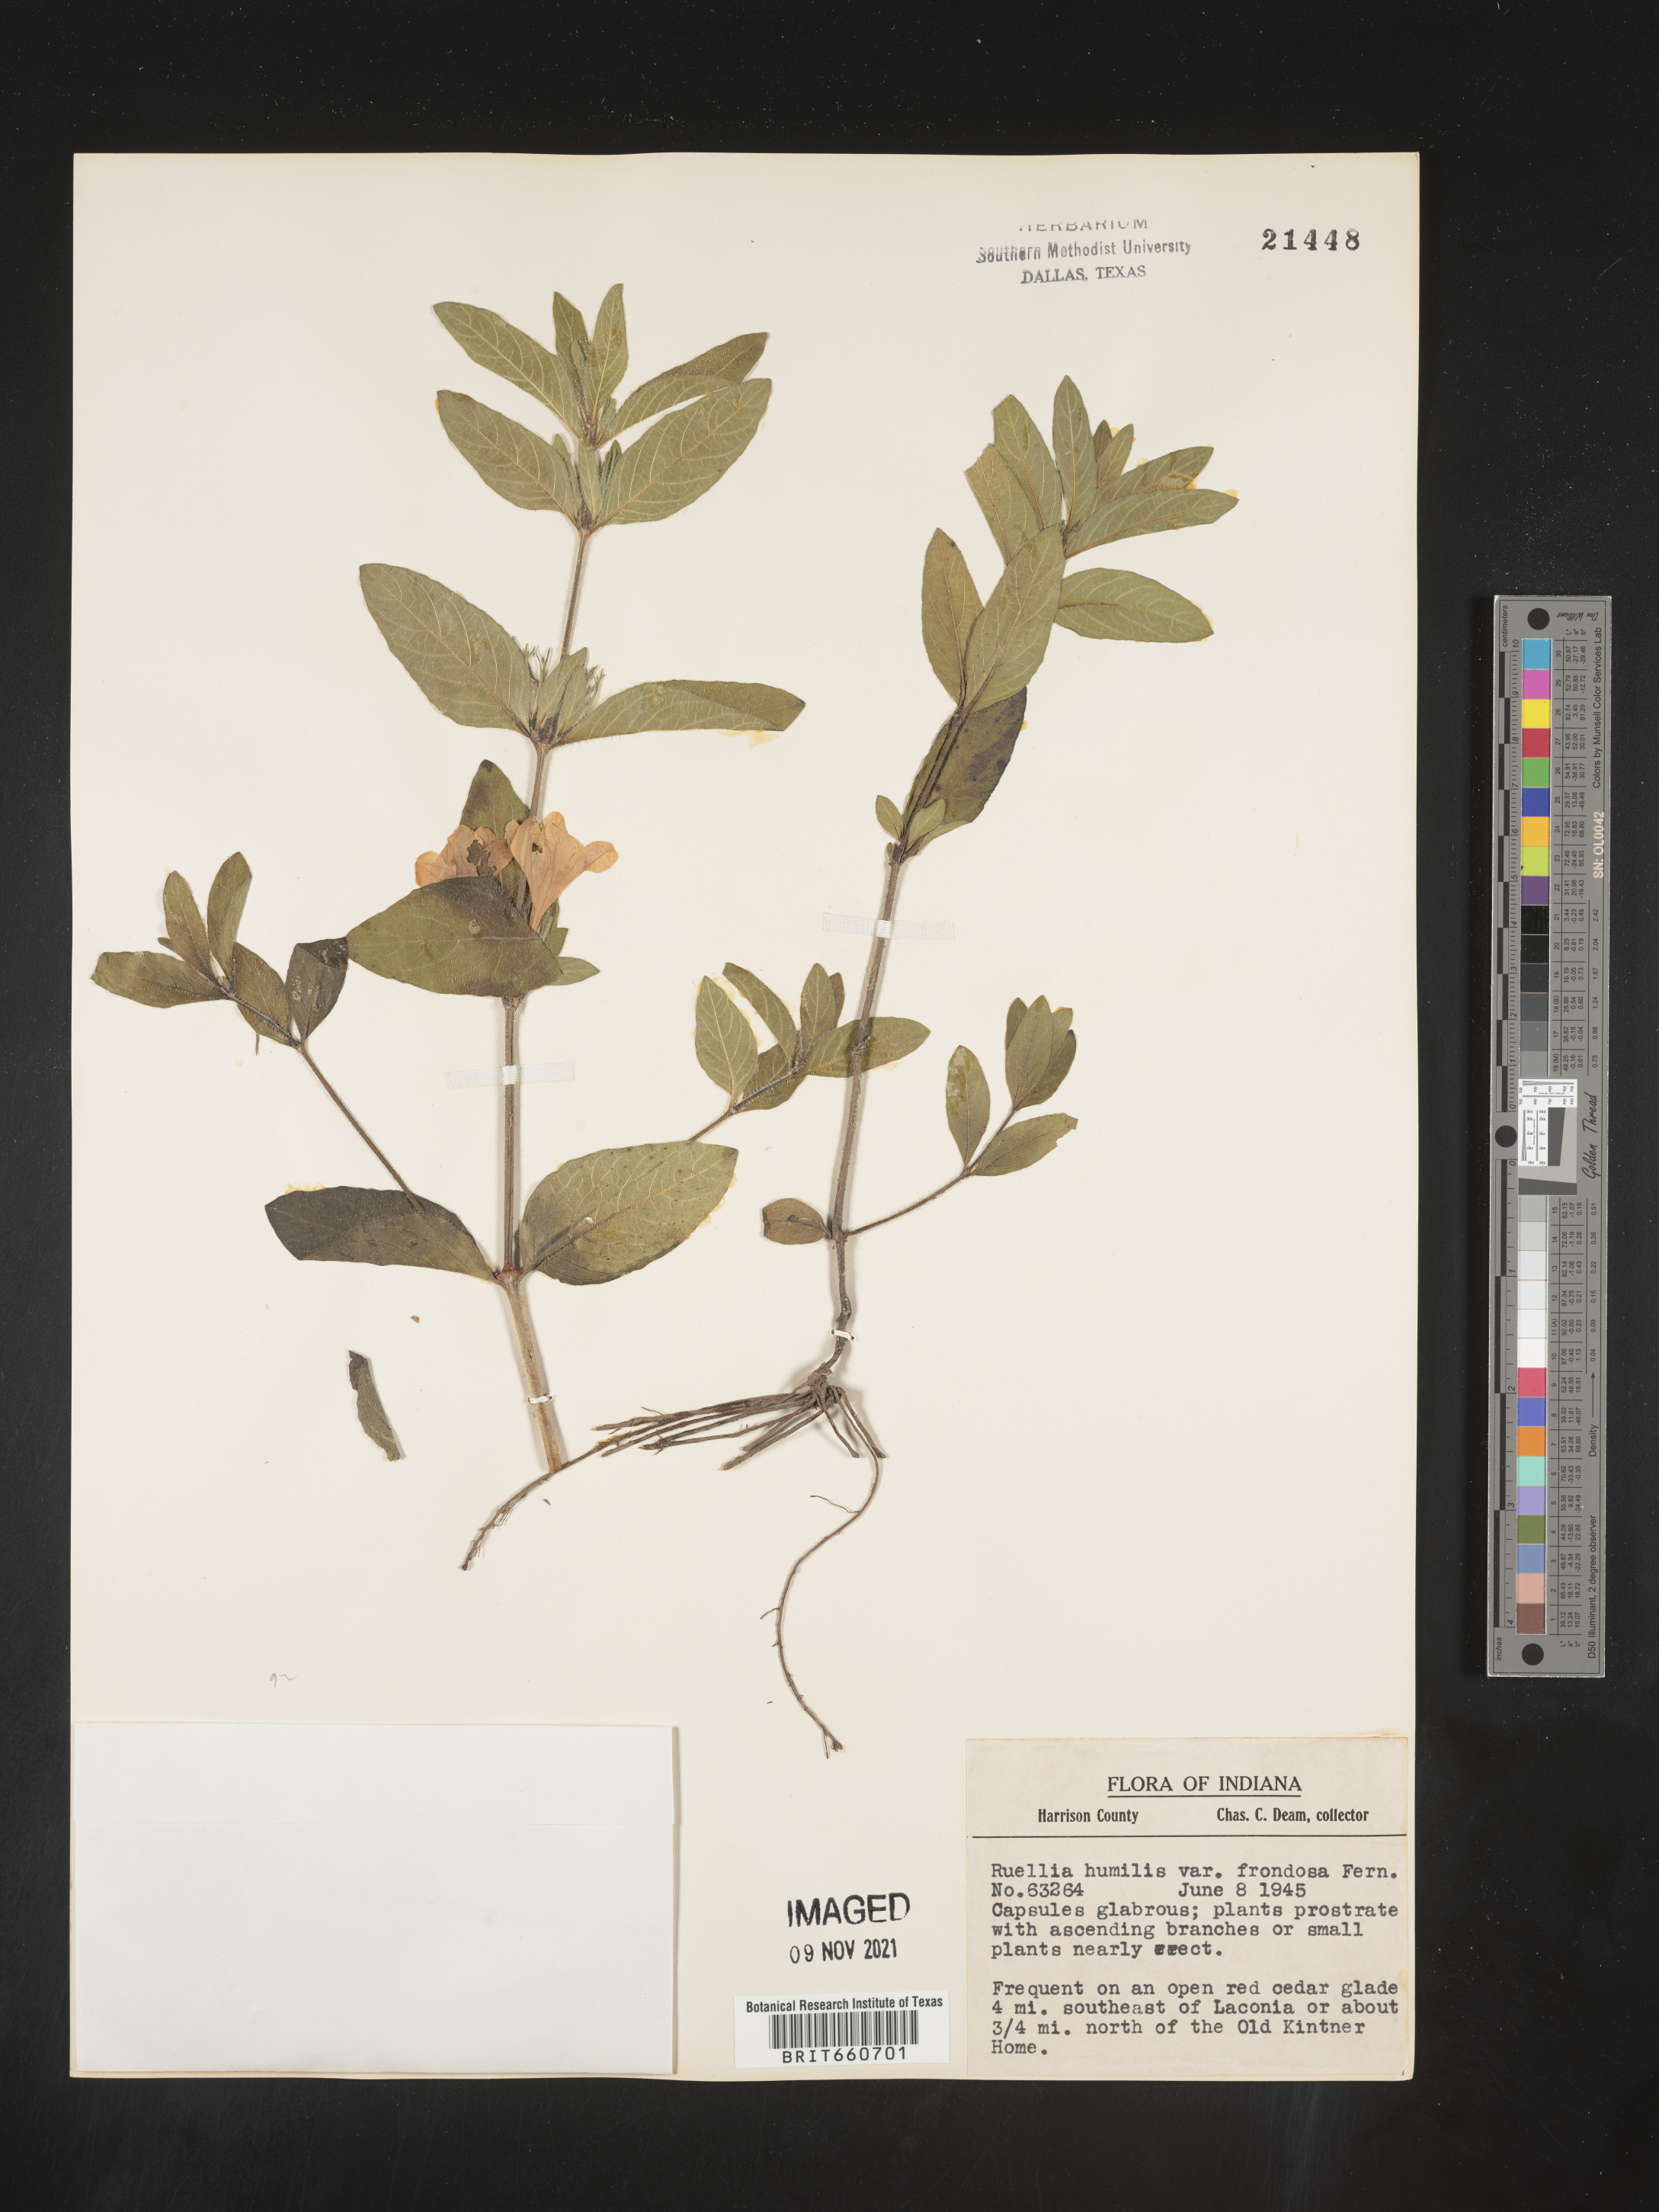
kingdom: Plantae
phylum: Tracheophyta
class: Magnoliopsida
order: Lamiales
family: Acanthaceae
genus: Ruellia
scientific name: Ruellia humilis
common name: Fringe-leaf ruellia
